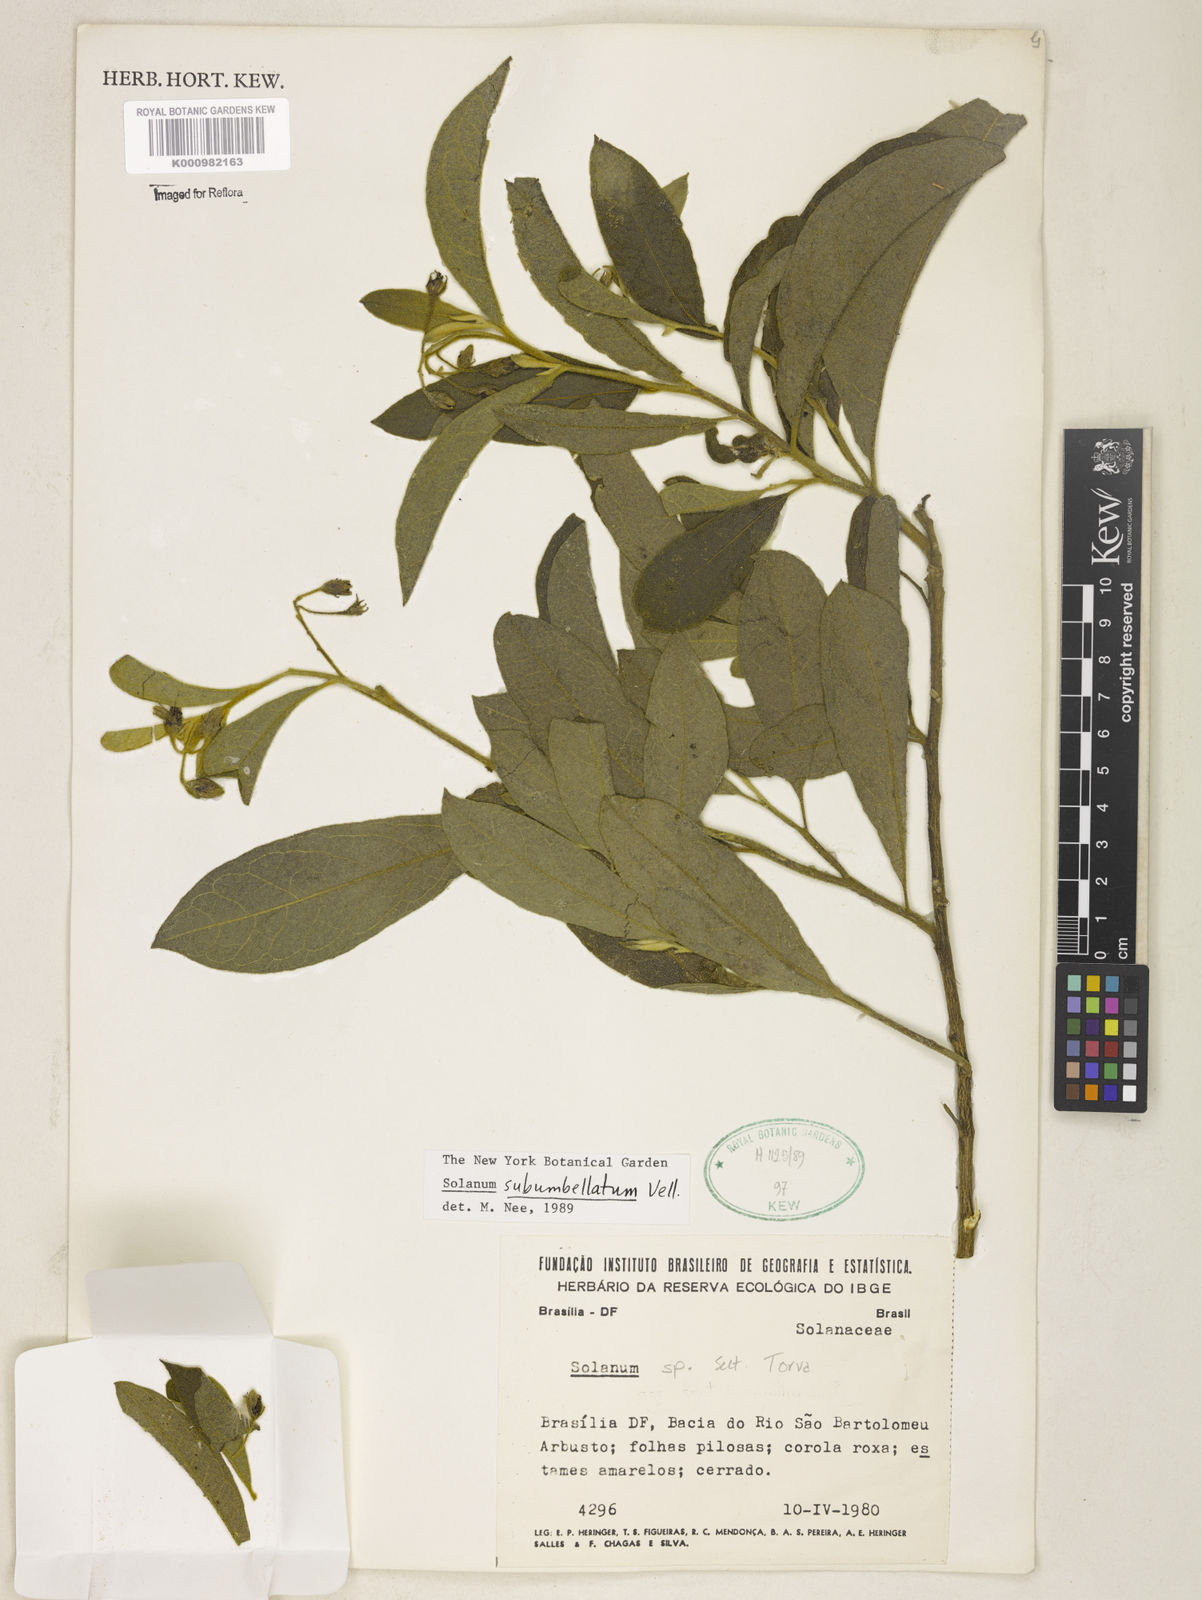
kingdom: Plantae
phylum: Tracheophyta
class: Magnoliopsida
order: Solanales
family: Solanaceae
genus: Solanum
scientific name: Solanum subumbellatum
